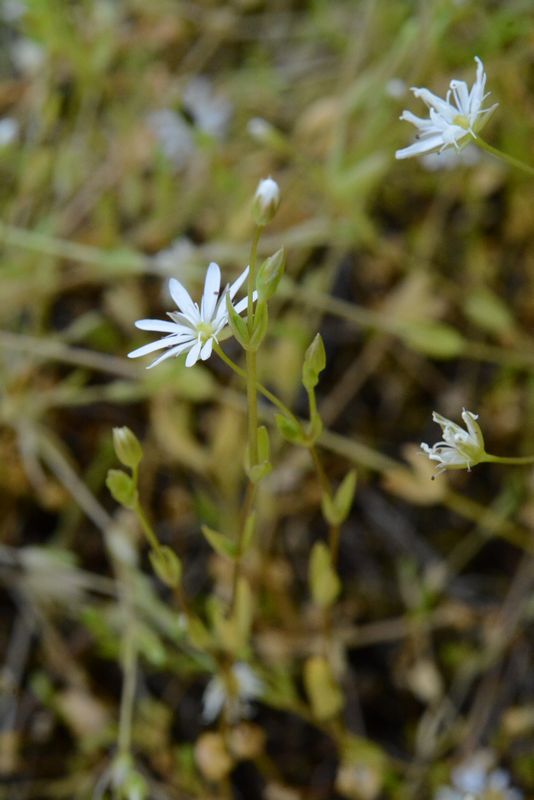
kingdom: Plantae
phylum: Tracheophyta
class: Magnoliopsida
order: Caryophyllales
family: Caryophyllaceae
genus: Stellaria
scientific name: Stellaria crassifolia
